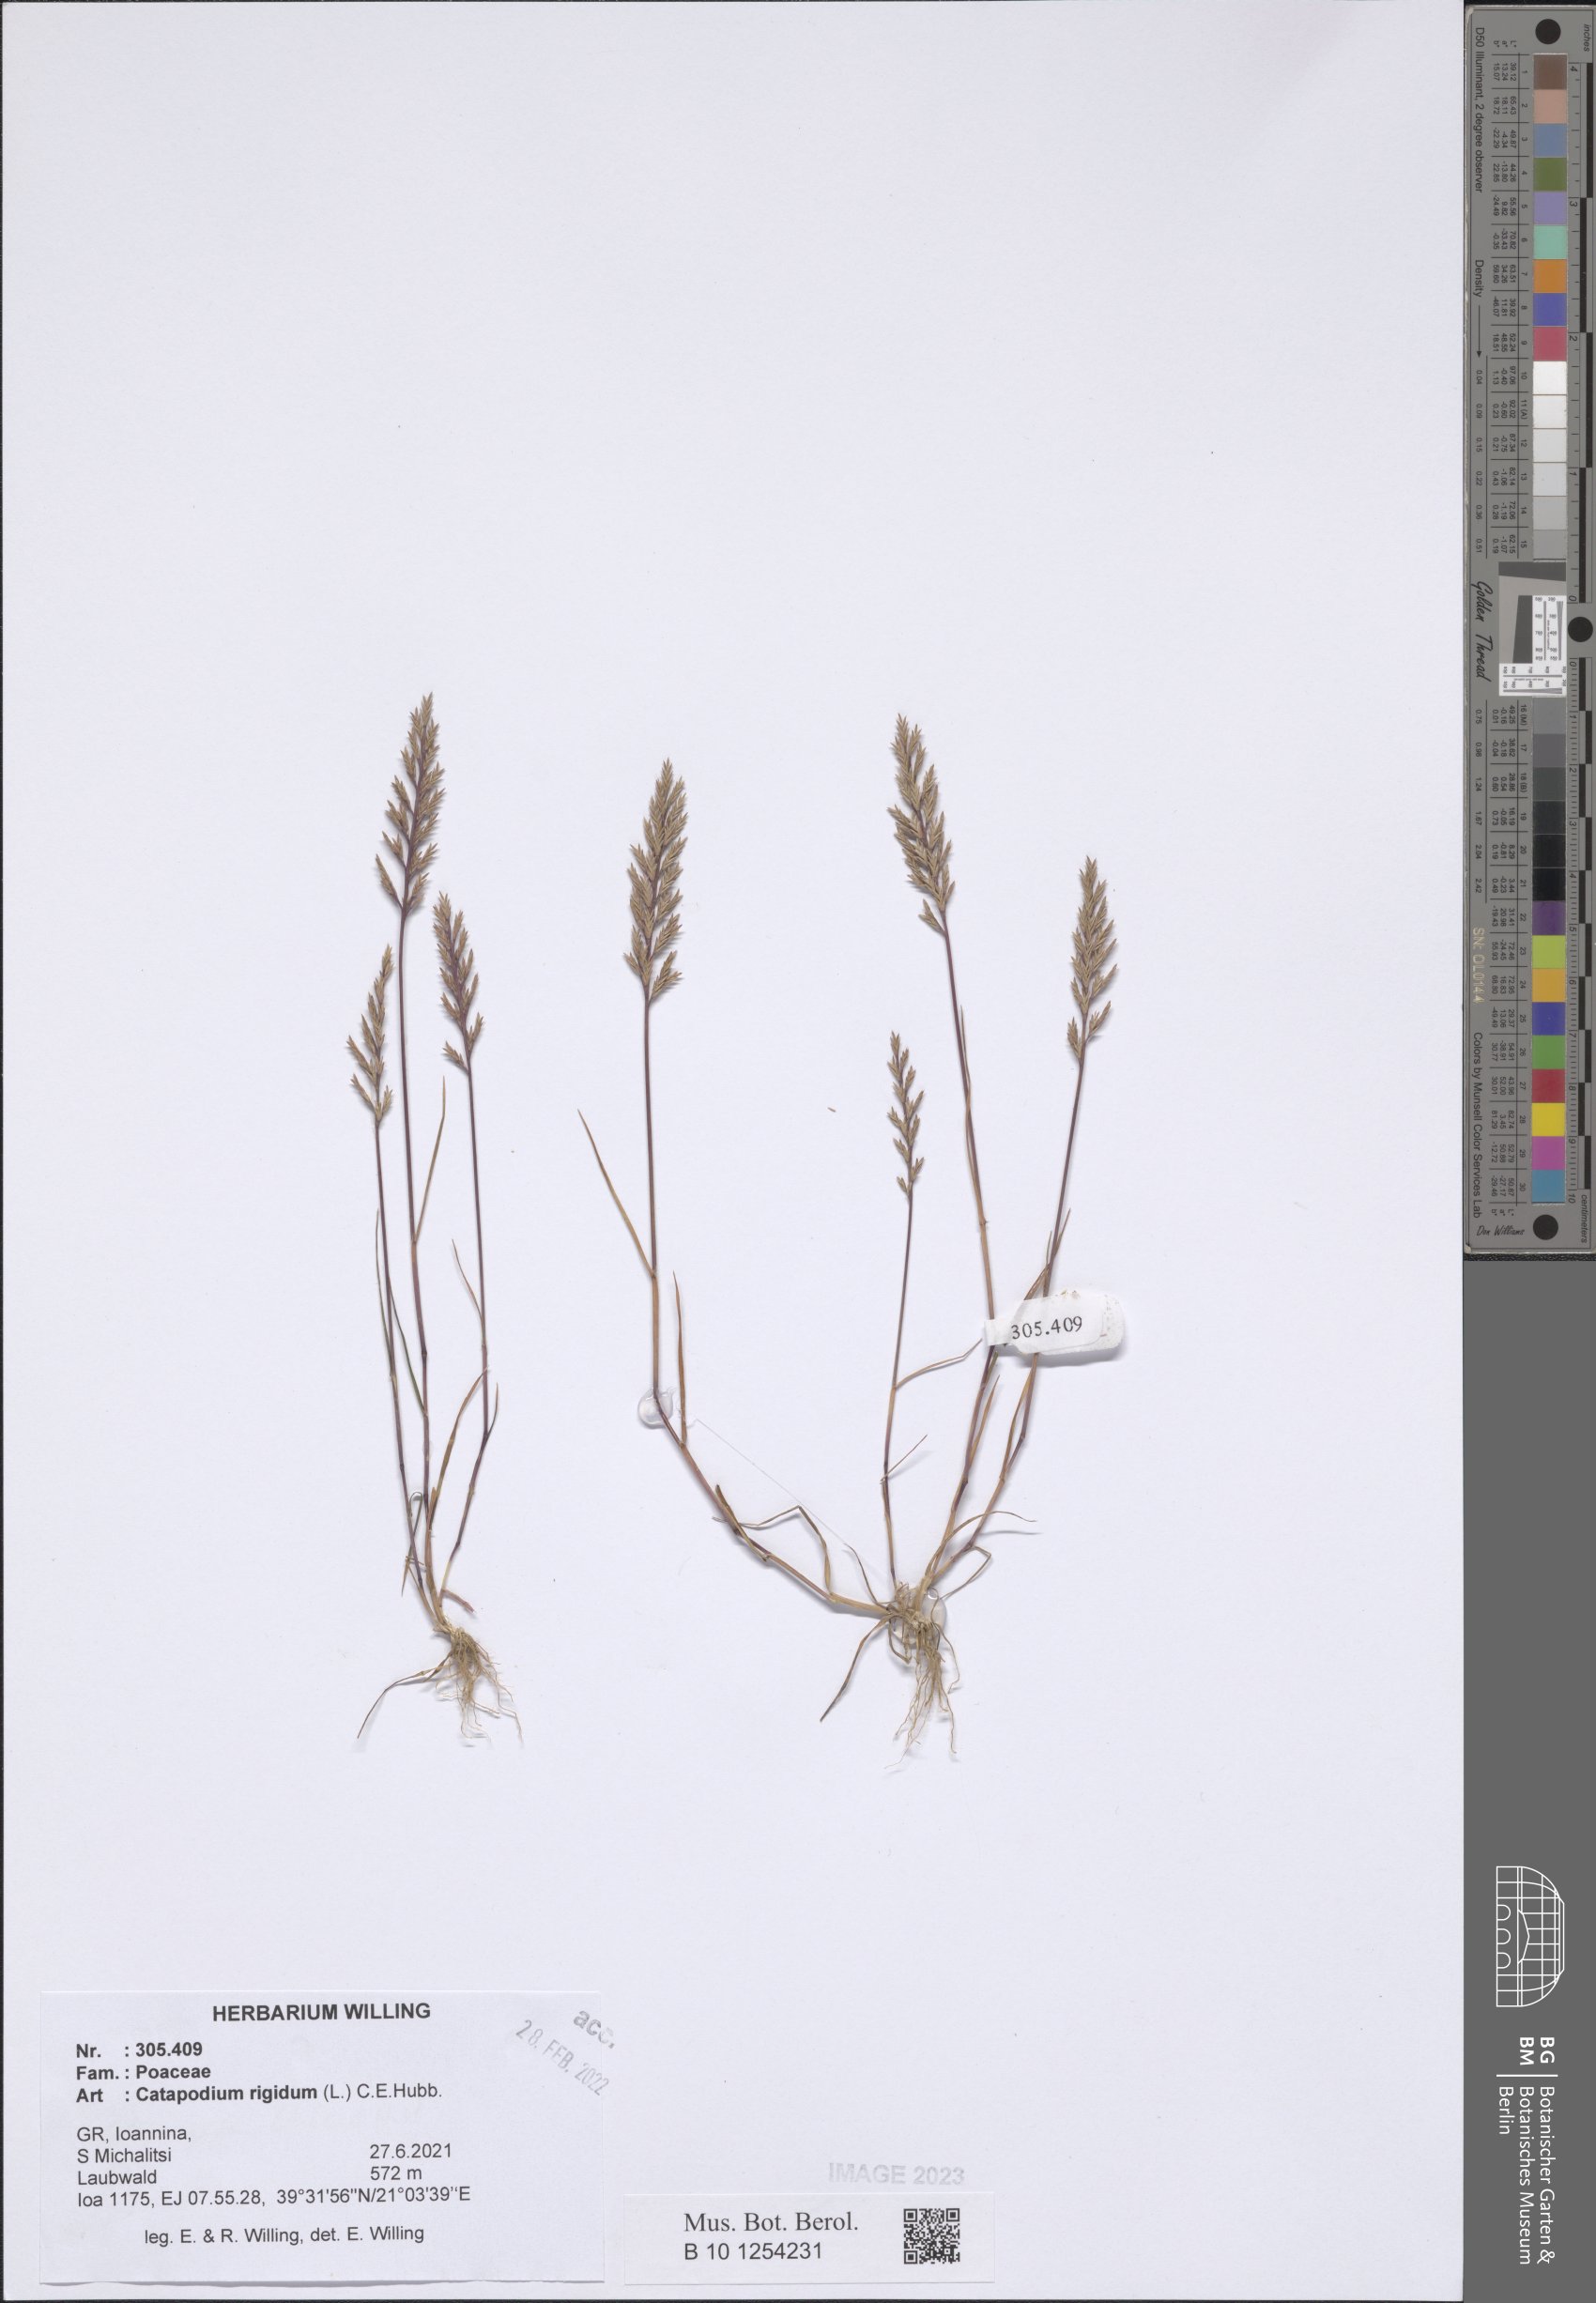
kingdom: Plantae
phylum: Tracheophyta
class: Liliopsida
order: Poales
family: Poaceae
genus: Catapodium
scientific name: Catapodium rigidum
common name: Fern-grass
